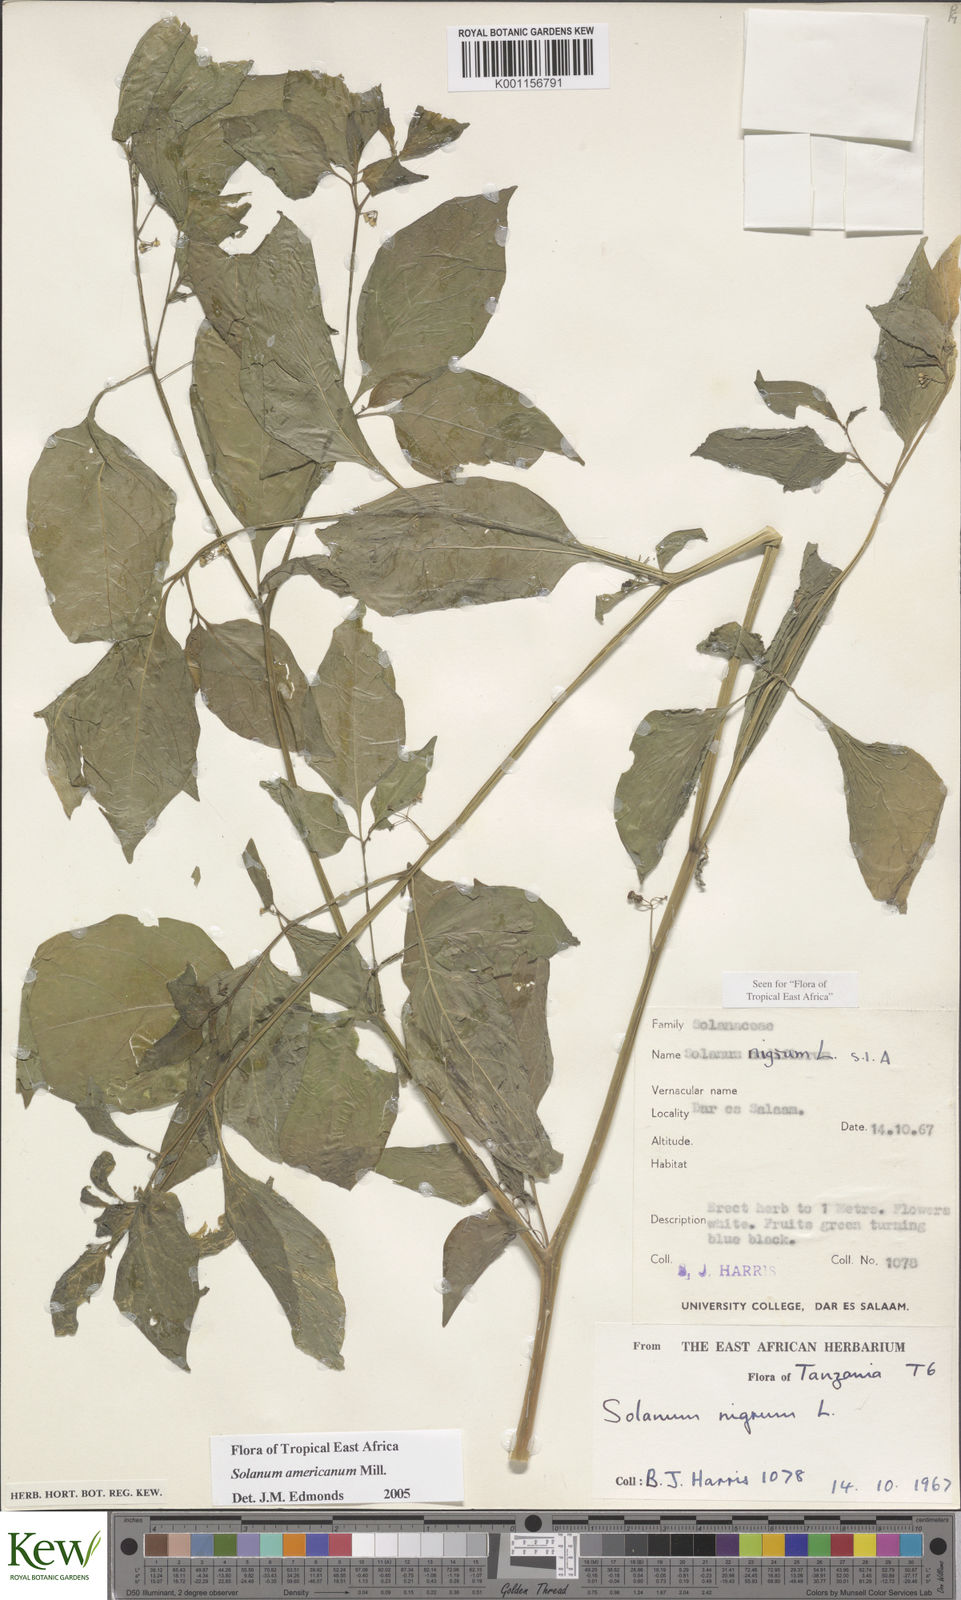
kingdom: Plantae
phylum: Tracheophyta
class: Magnoliopsida
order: Solanales
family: Solanaceae
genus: Solanum
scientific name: Solanum americanum
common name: American black nightshade
